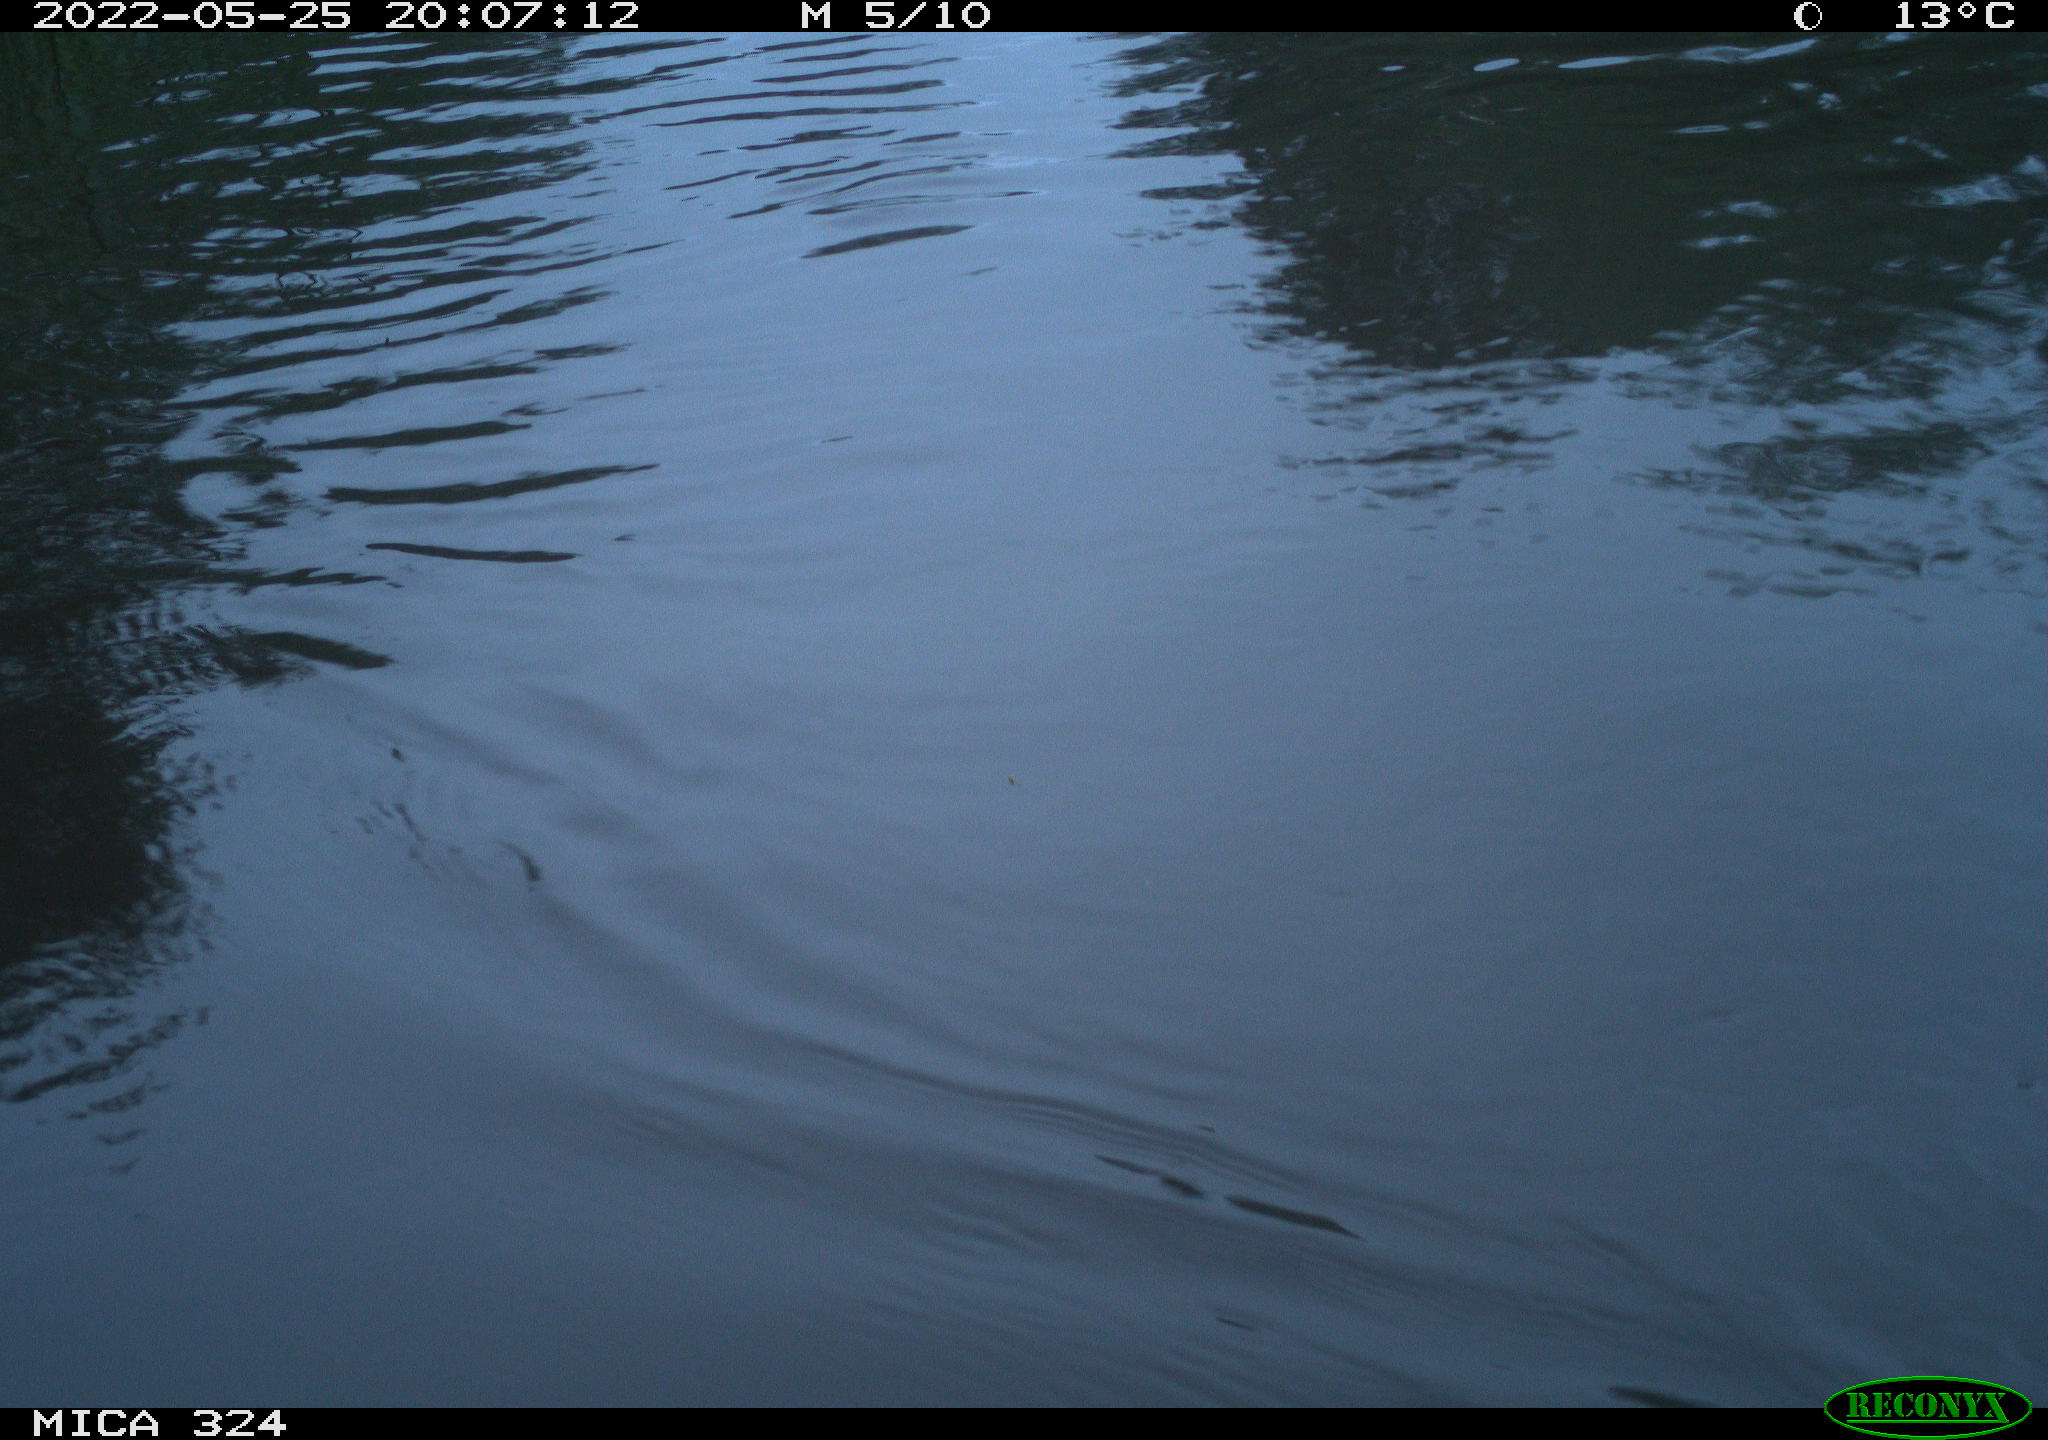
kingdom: Animalia
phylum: Chordata
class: Aves
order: Anseriformes
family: Anatidae
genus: Anas
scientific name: Anas platyrhynchos
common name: Mallard
